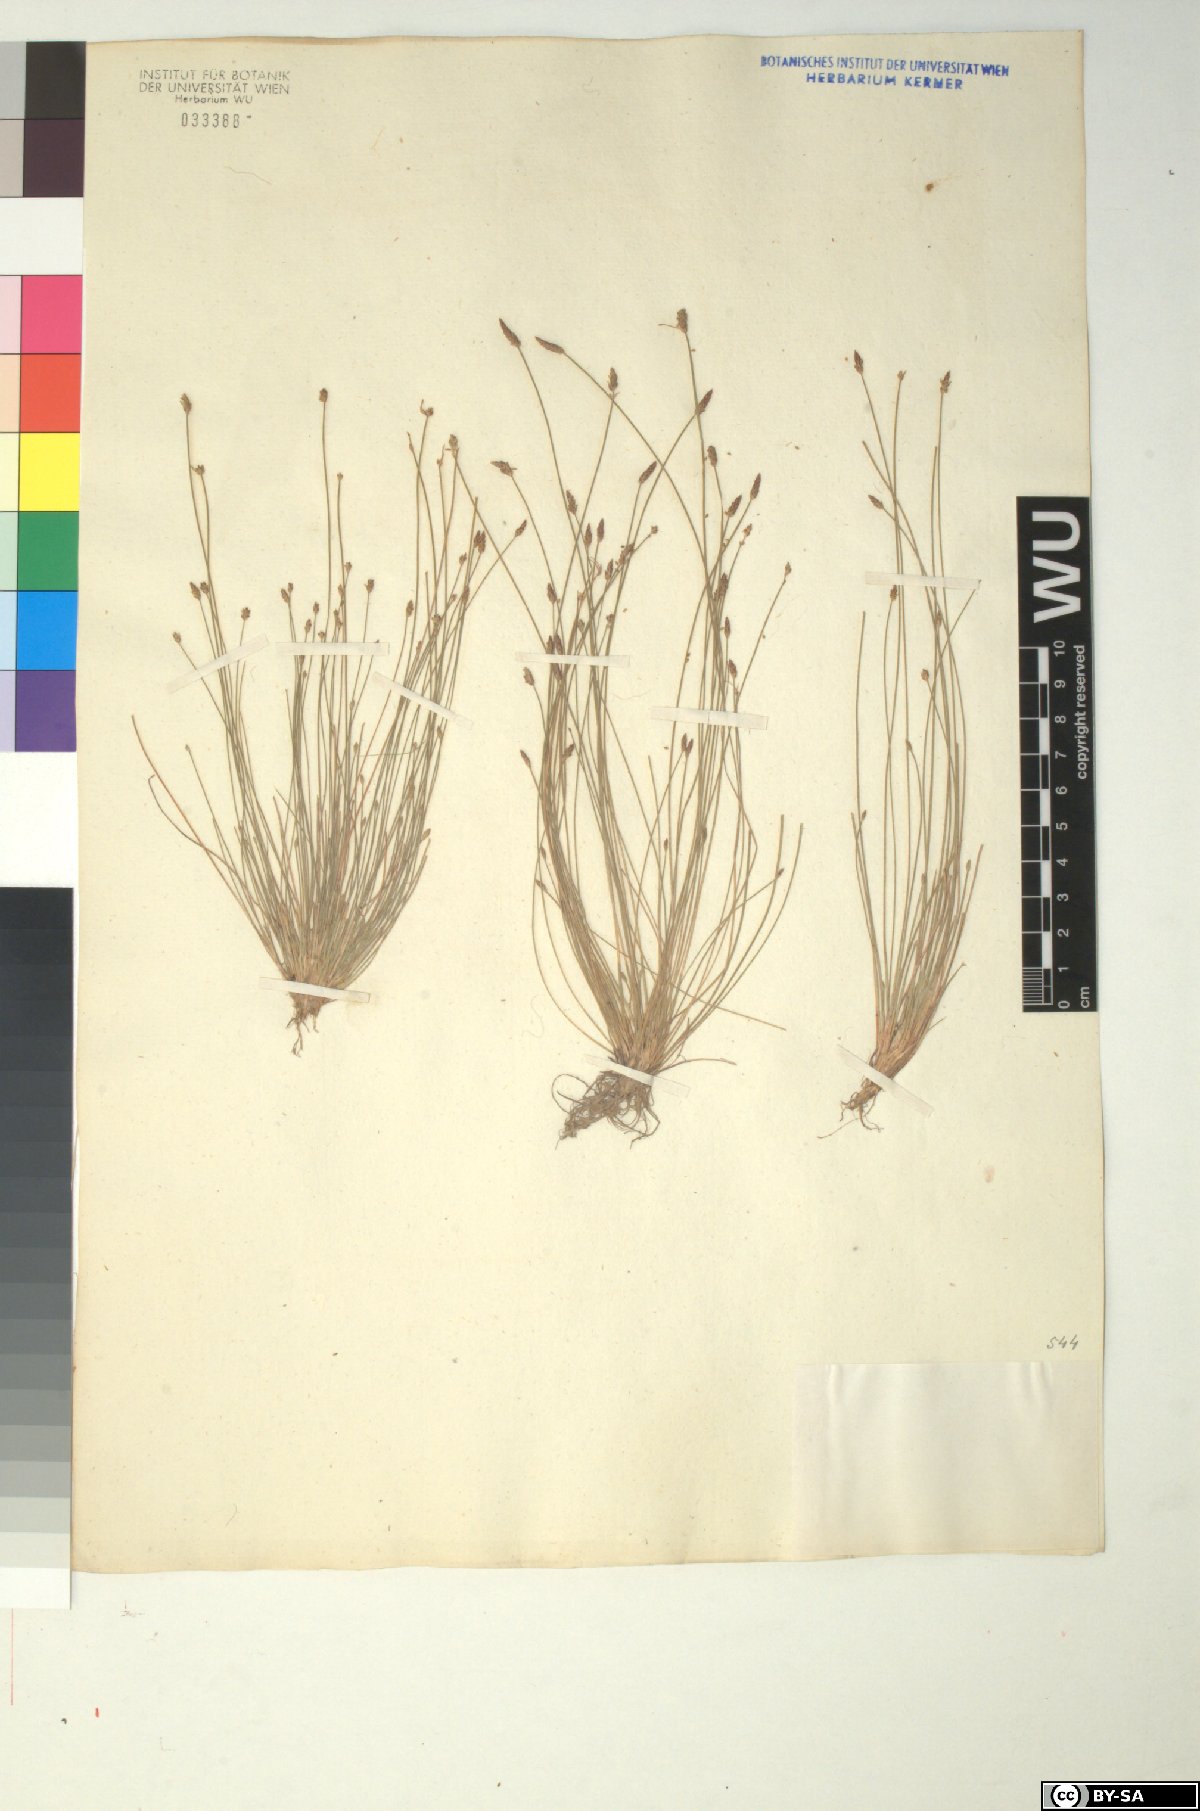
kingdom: Plantae
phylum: Tracheophyta
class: Liliopsida
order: Poales
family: Cyperaceae
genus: Eleocharis
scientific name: Eleocharis carniolica
